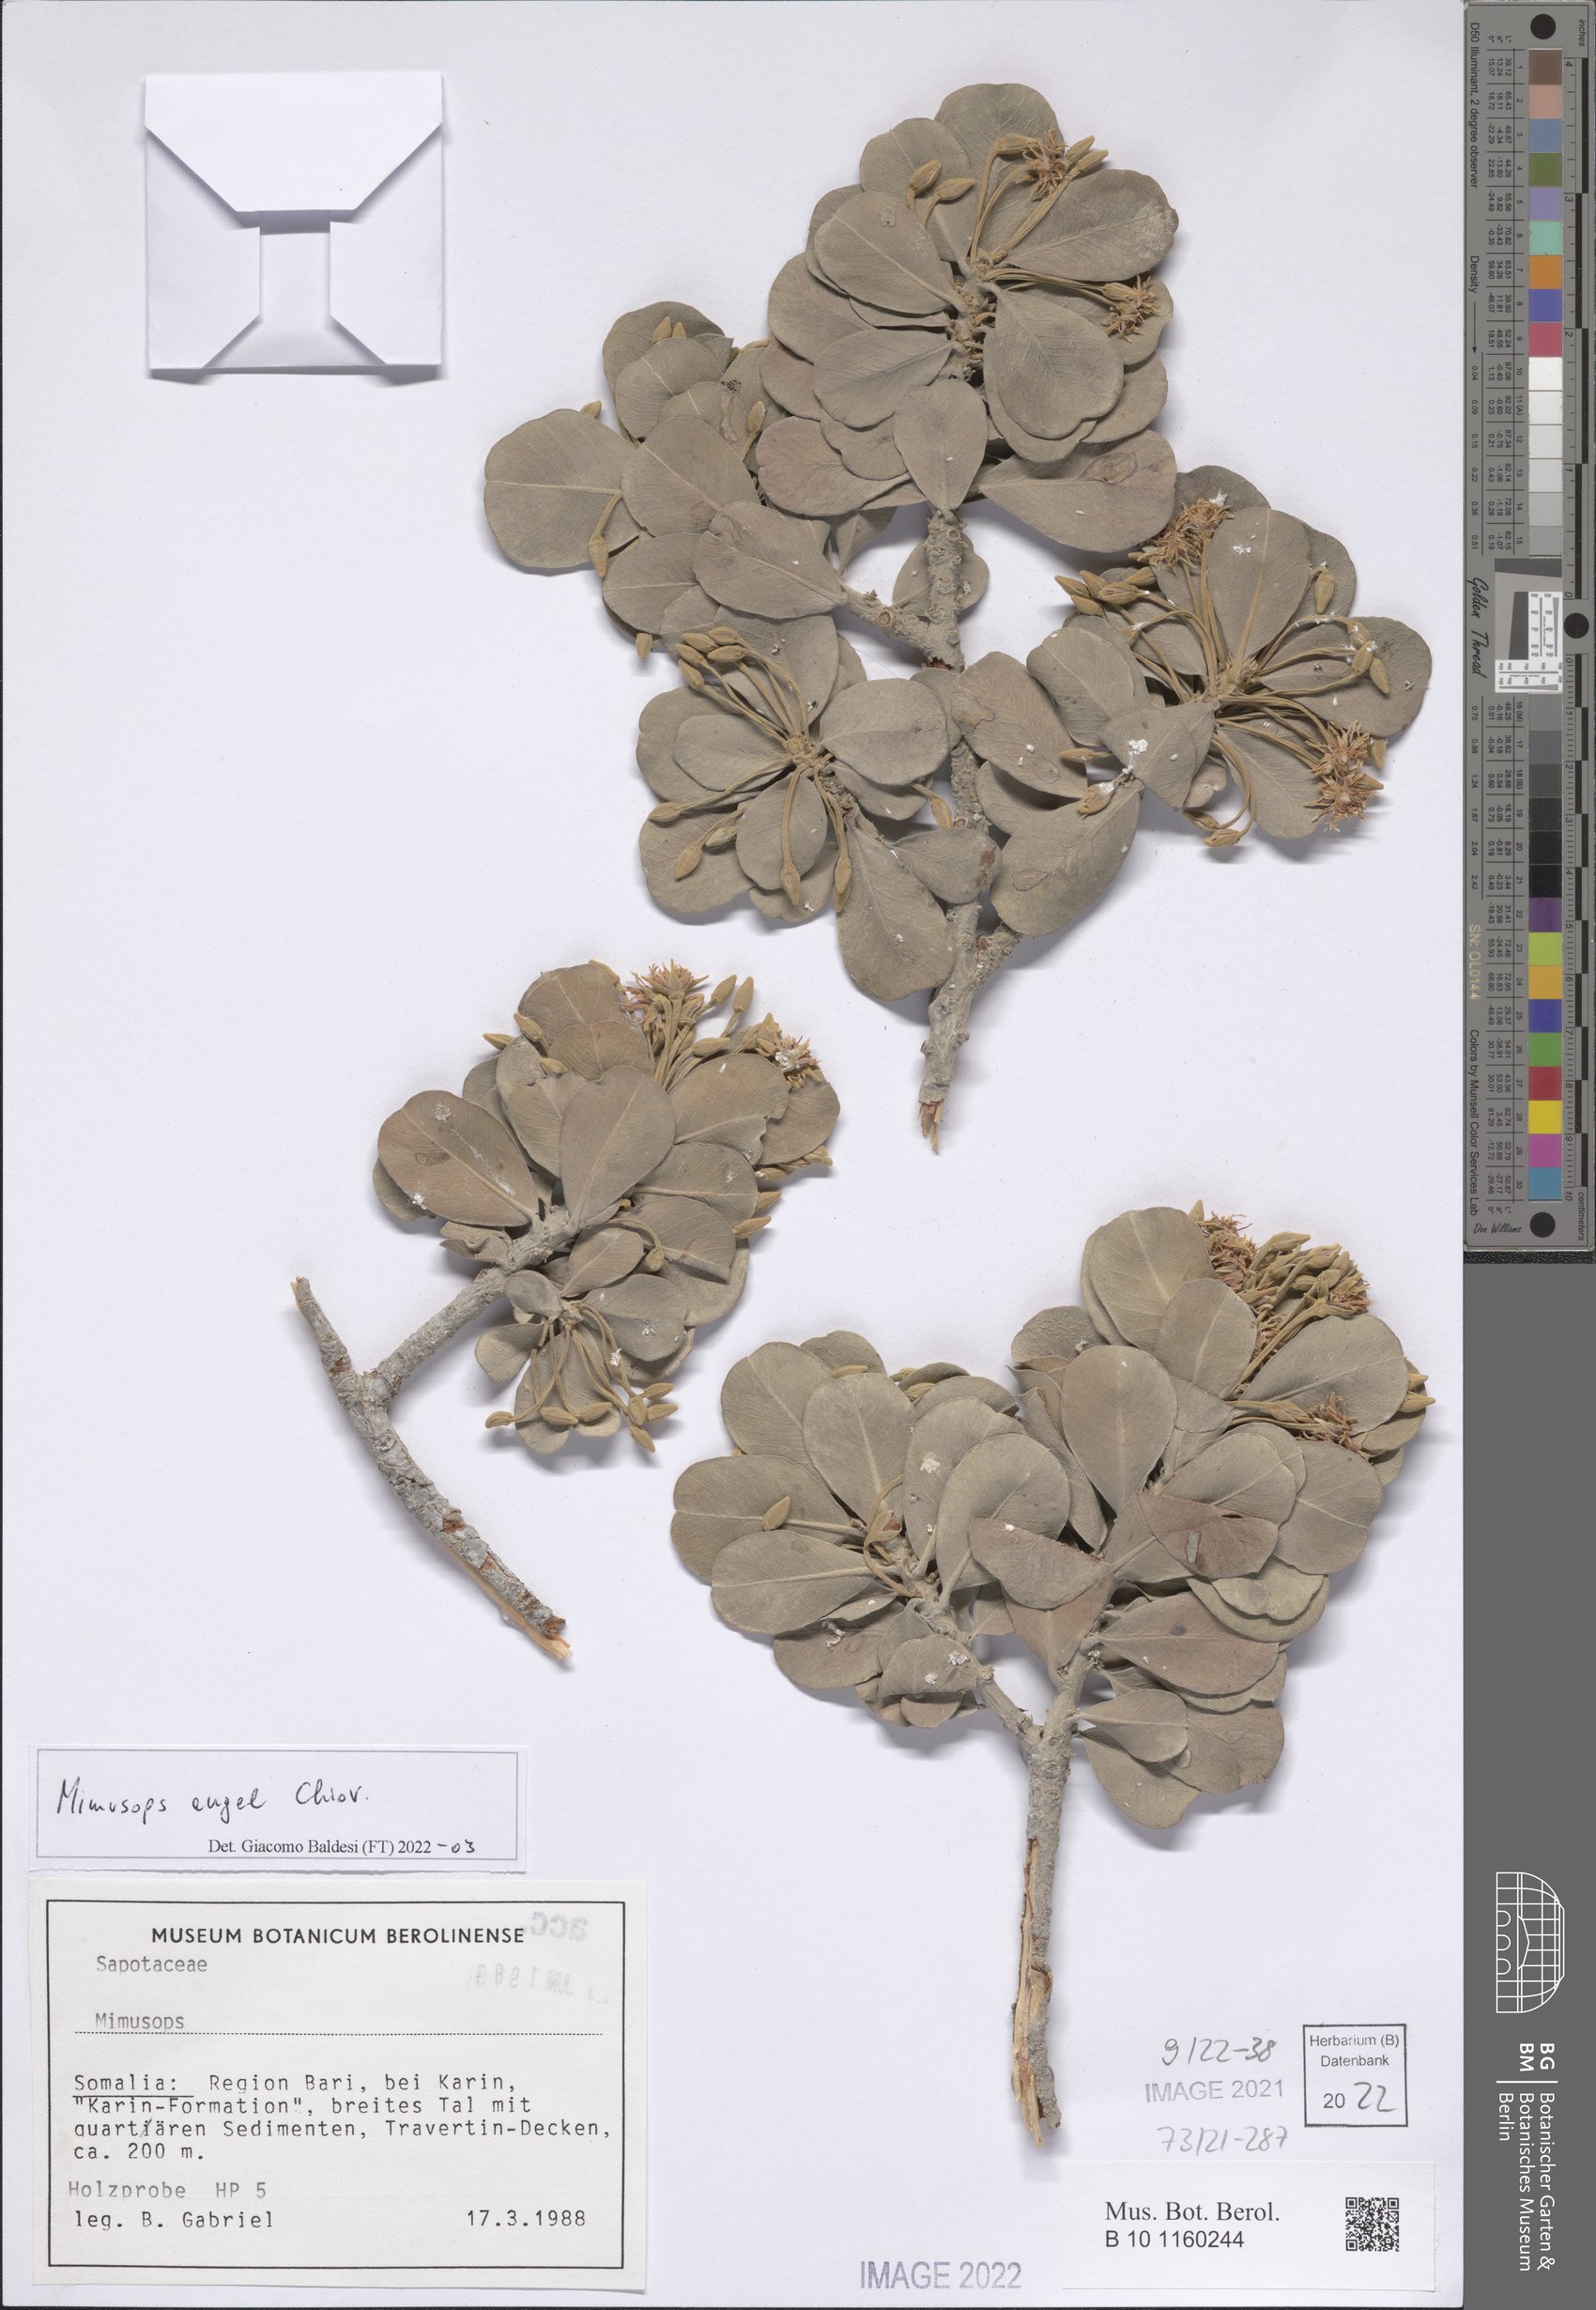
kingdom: Plantae
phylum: Tracheophyta
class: Magnoliopsida
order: Ericales
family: Sapotaceae
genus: Mimusops
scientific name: Mimusops angel
